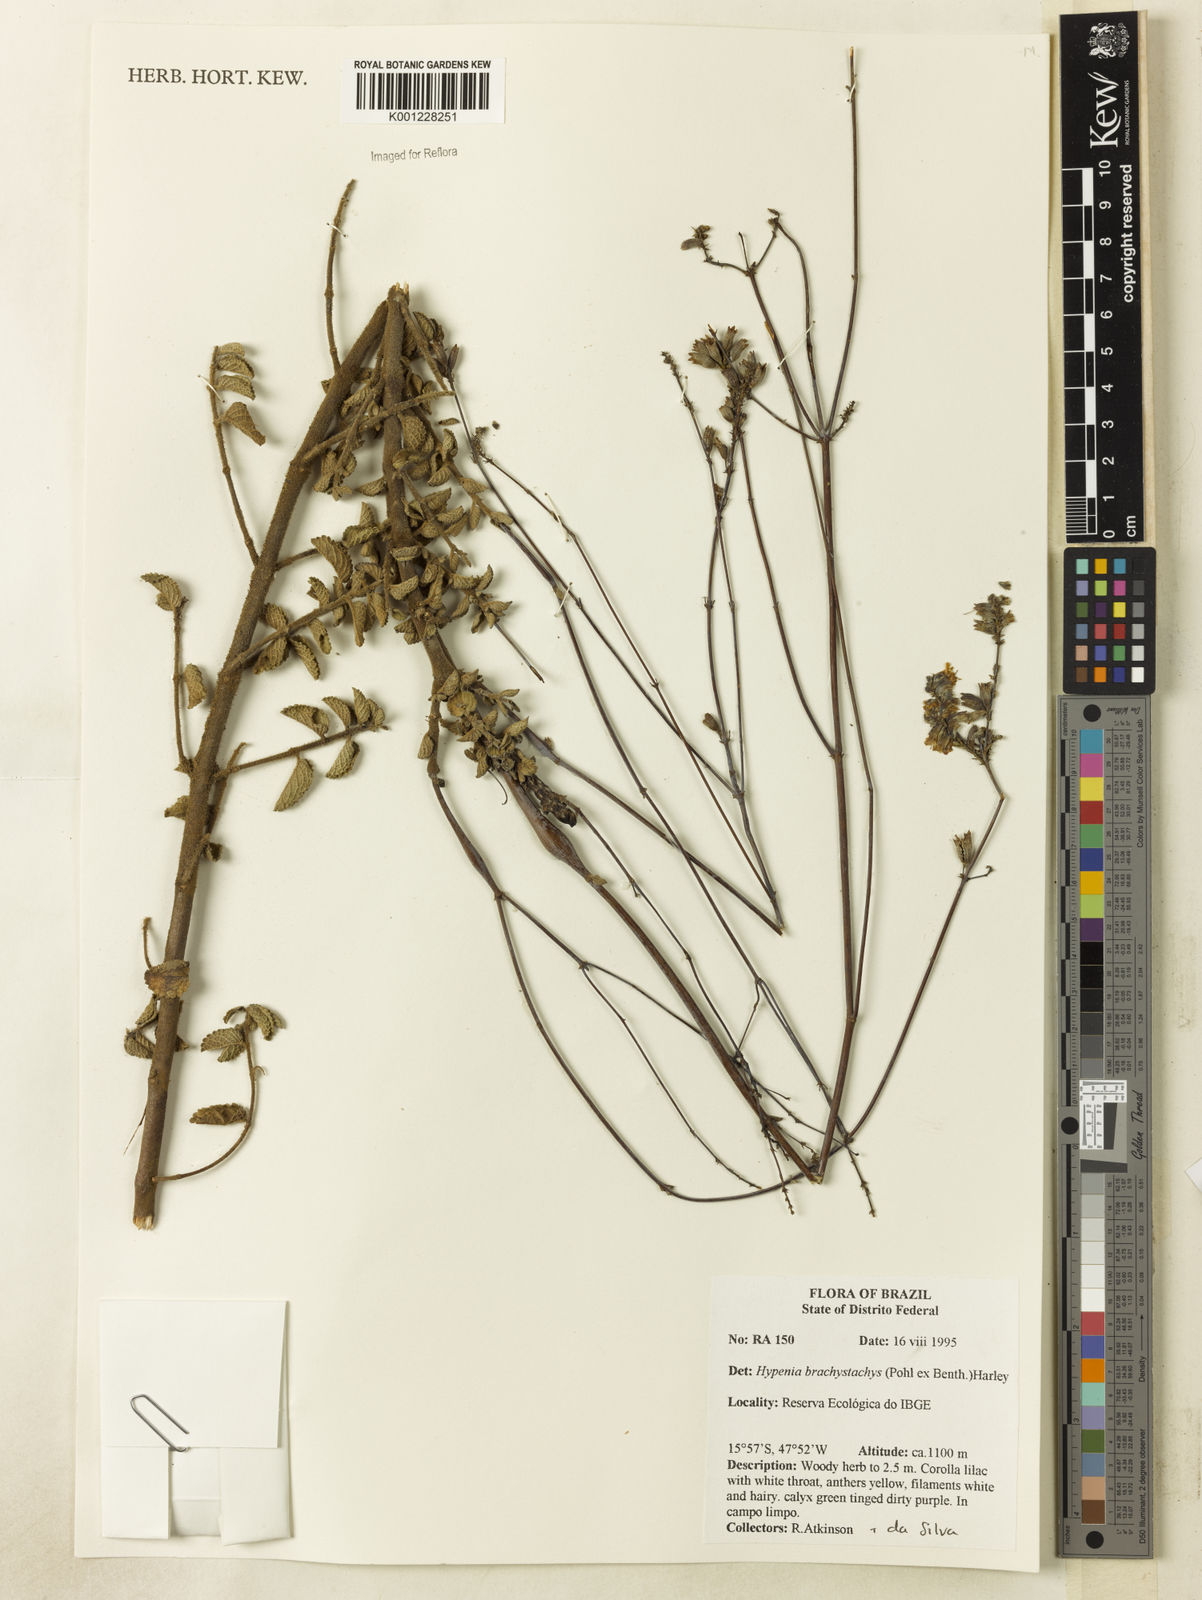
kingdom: Plantae
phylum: Tracheophyta
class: Magnoliopsida
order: Lamiales
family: Lamiaceae
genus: Hypenia
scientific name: Hypenia brachystachys
